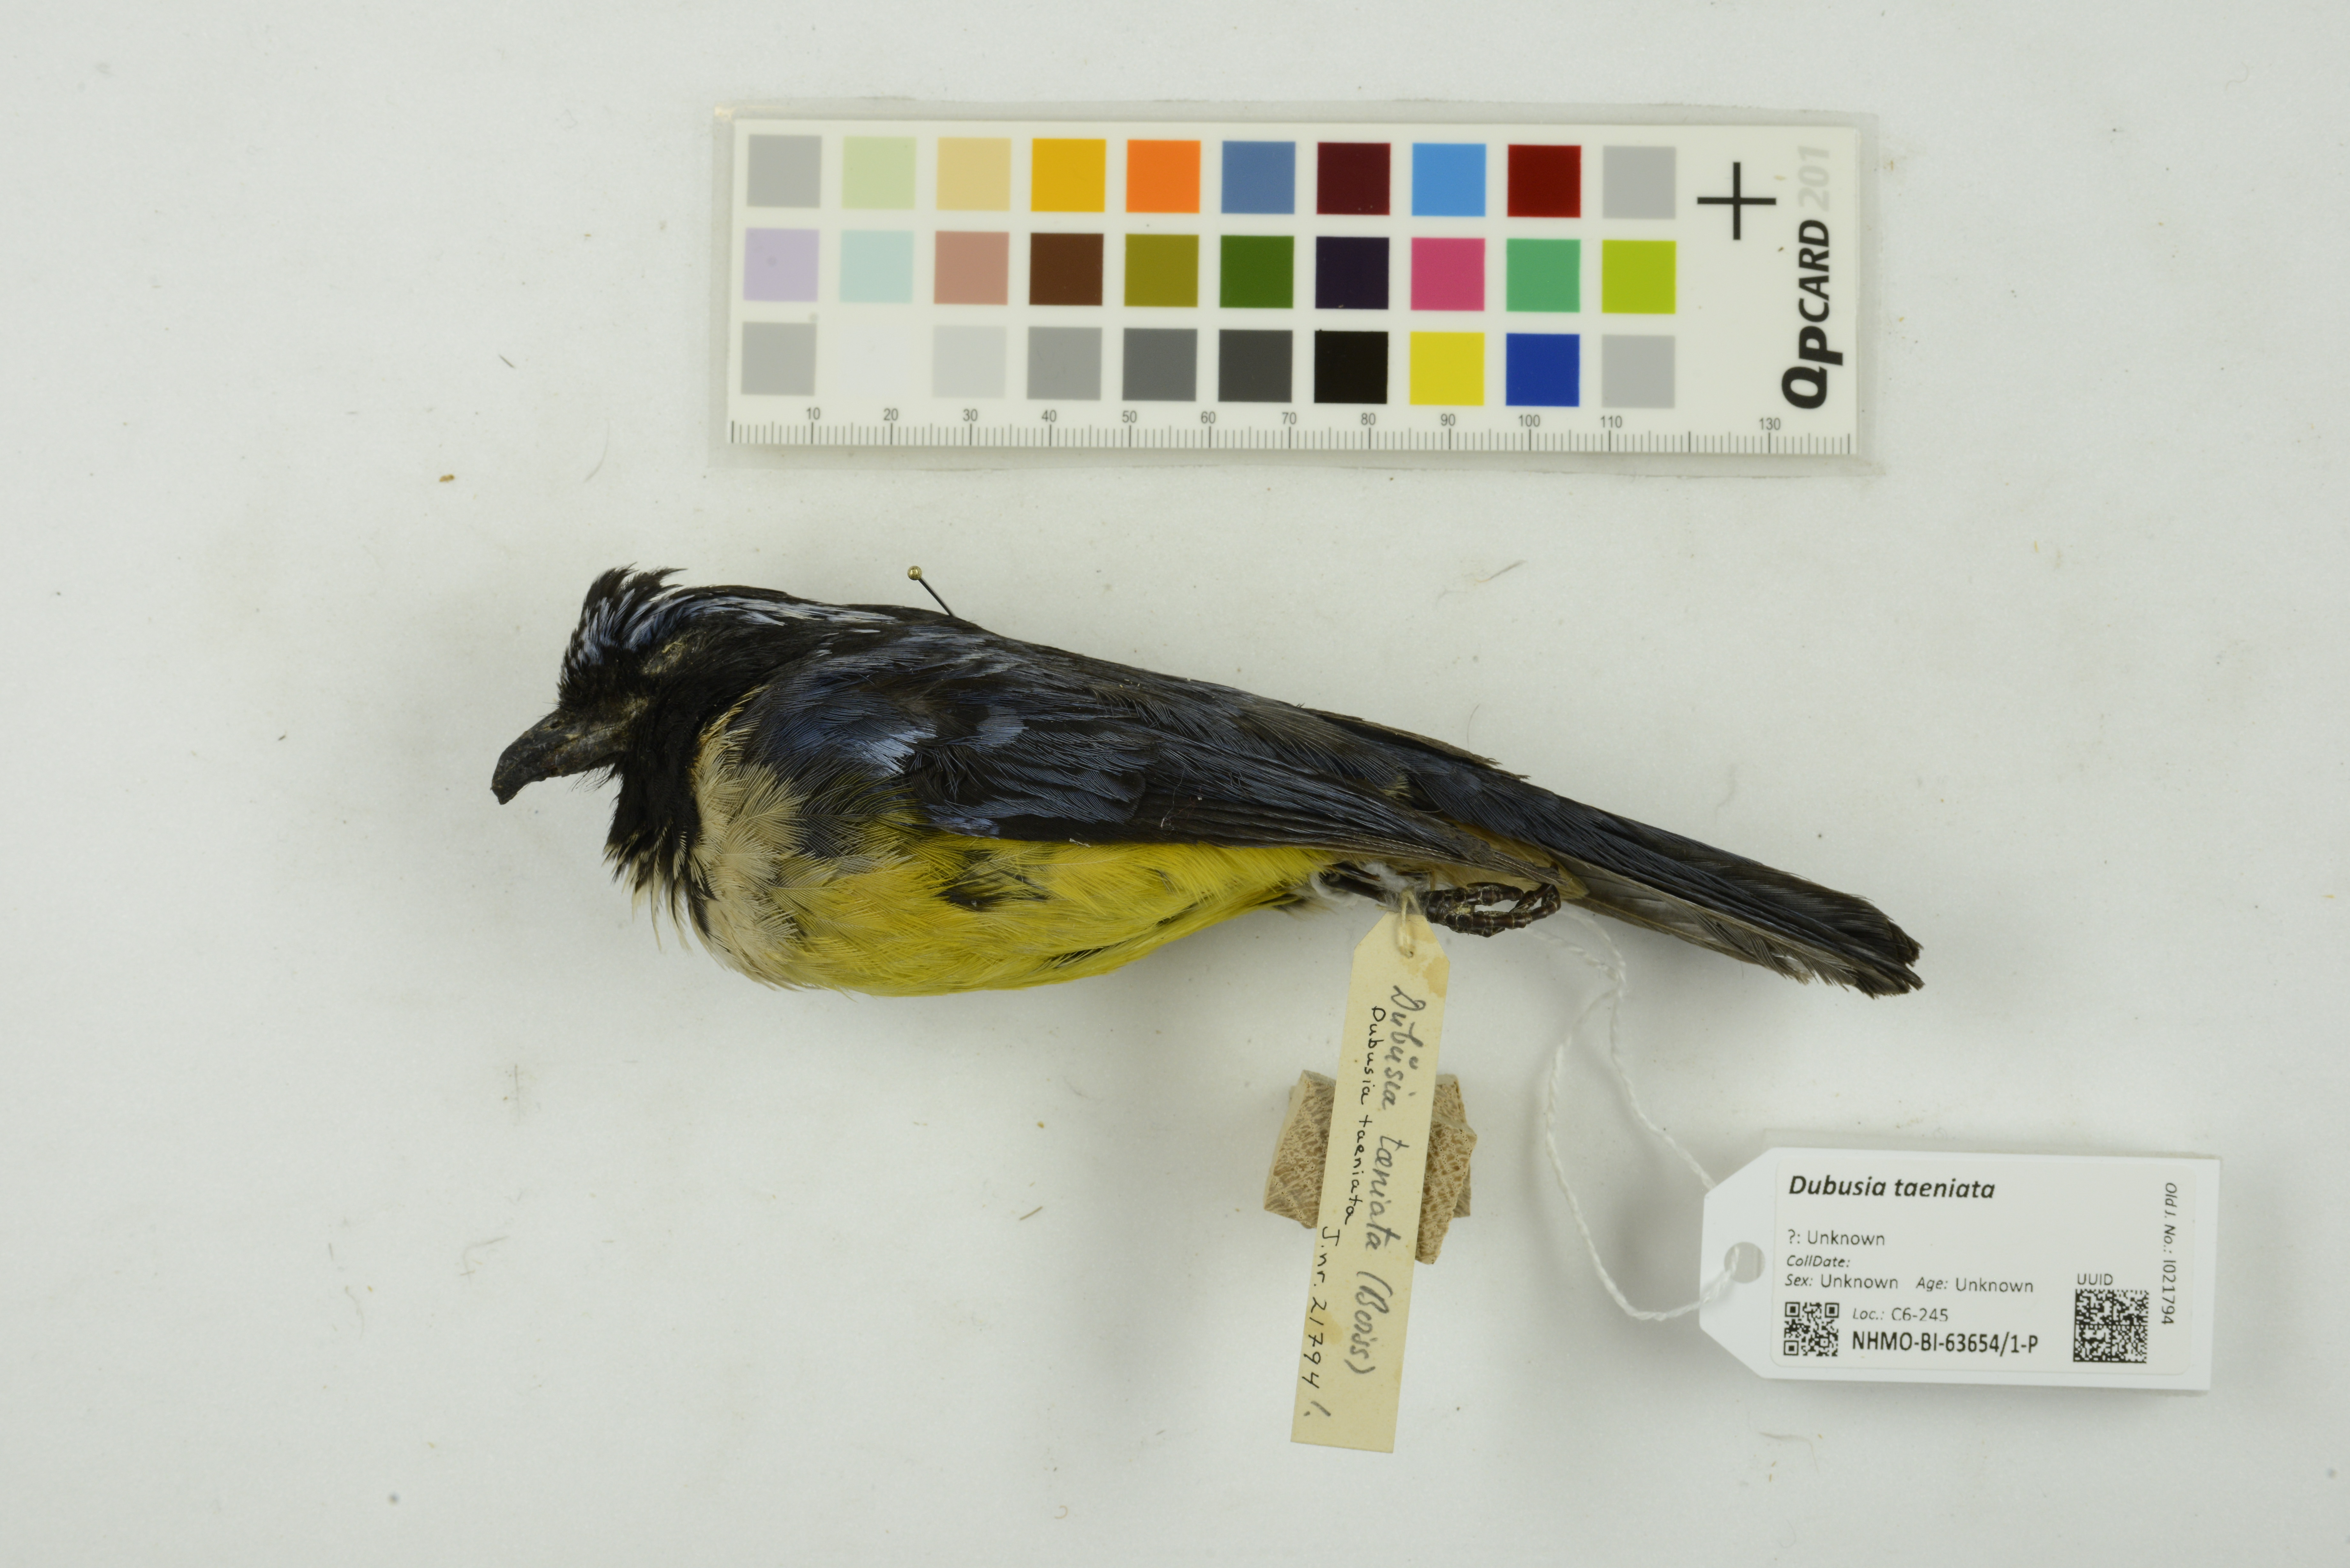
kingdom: Animalia
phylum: Chordata
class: Aves
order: Passeriformes
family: Thraupidae
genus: Dubusia
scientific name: Dubusia taeniata
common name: Buff-breasted mountain tanager
